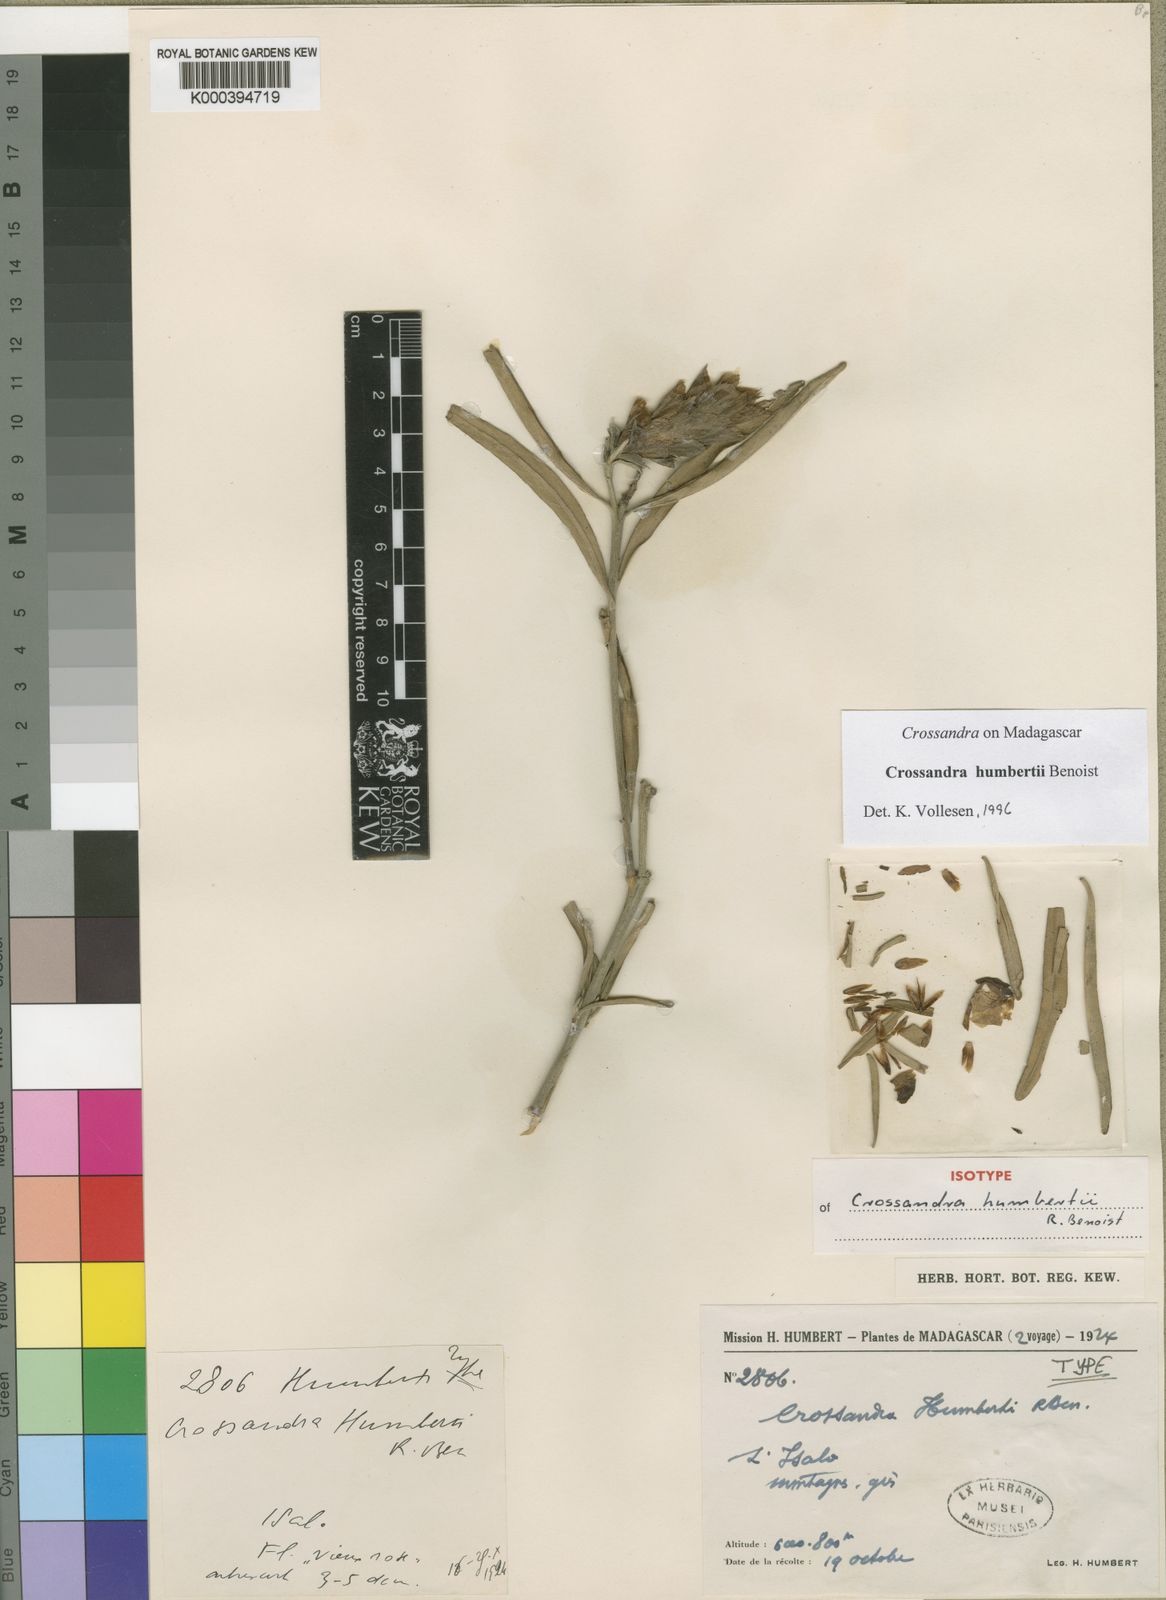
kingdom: Plantae
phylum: Tracheophyta
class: Magnoliopsida
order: Lamiales
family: Acanthaceae
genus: Crossandra
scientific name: Crossandra humbertii
